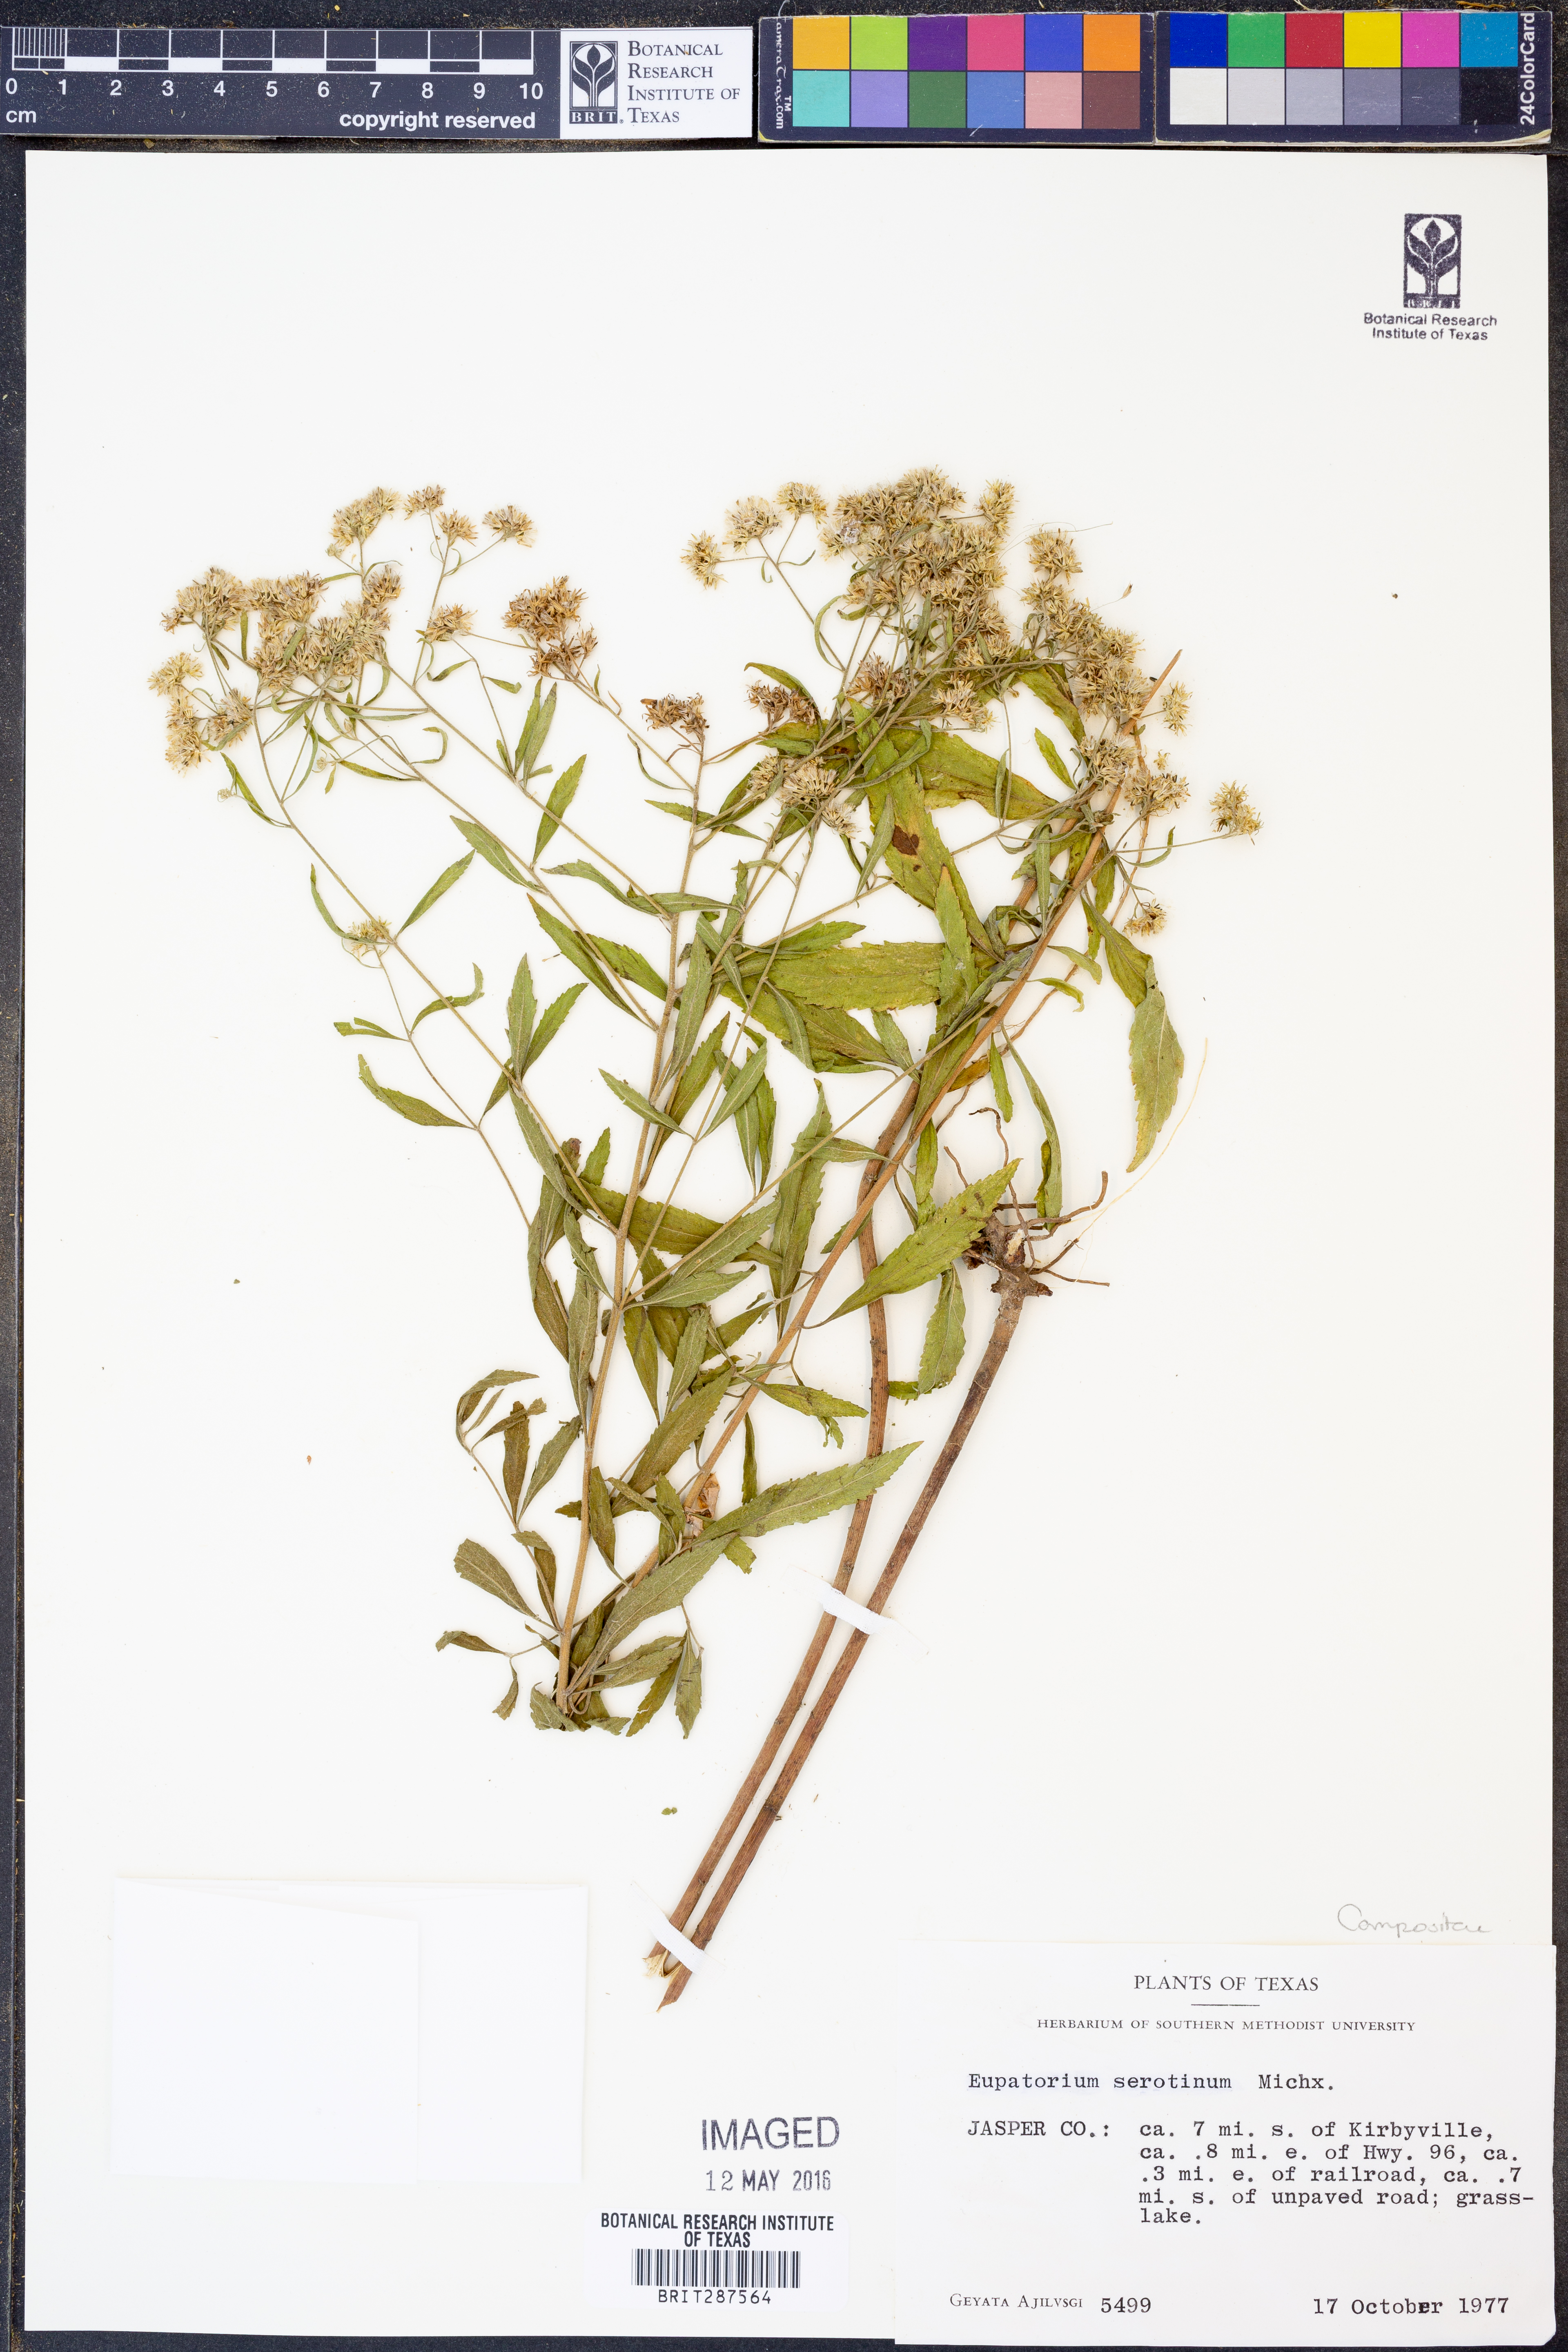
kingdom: Plantae
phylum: Tracheophyta
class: Magnoliopsida
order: Asterales
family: Asteraceae
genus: Eupatorium
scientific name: Eupatorium serotinum
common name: Late boneset
